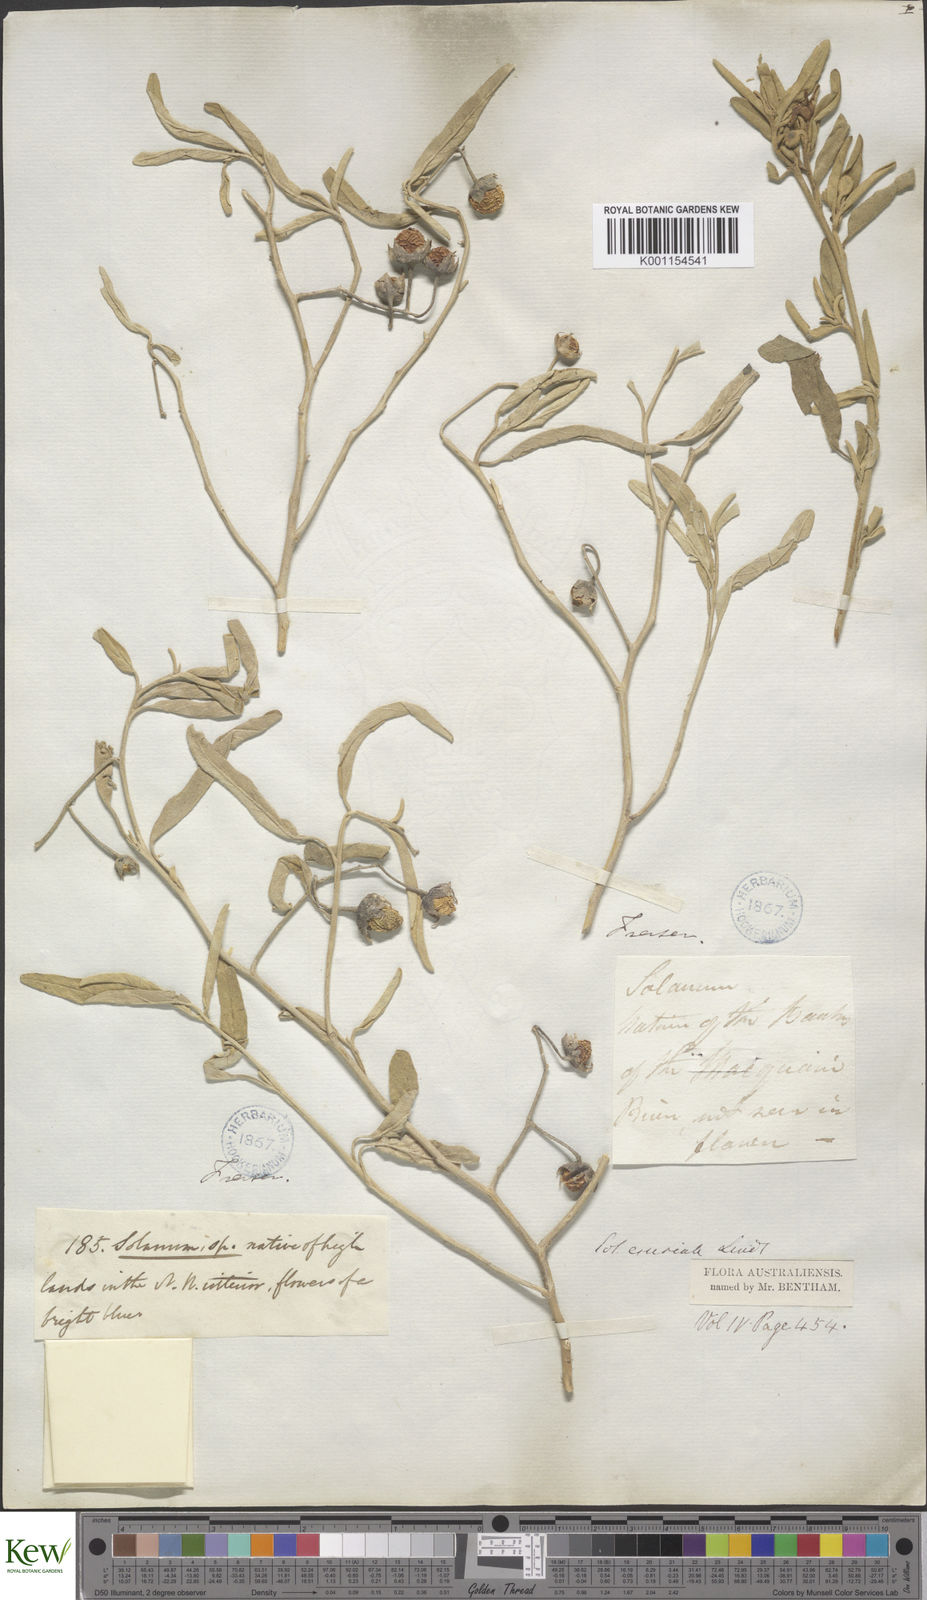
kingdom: Plantae
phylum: Tracheophyta
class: Magnoliopsida
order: Solanales
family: Solanaceae
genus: Solanum
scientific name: Solanum esuriale
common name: Wild tomato
